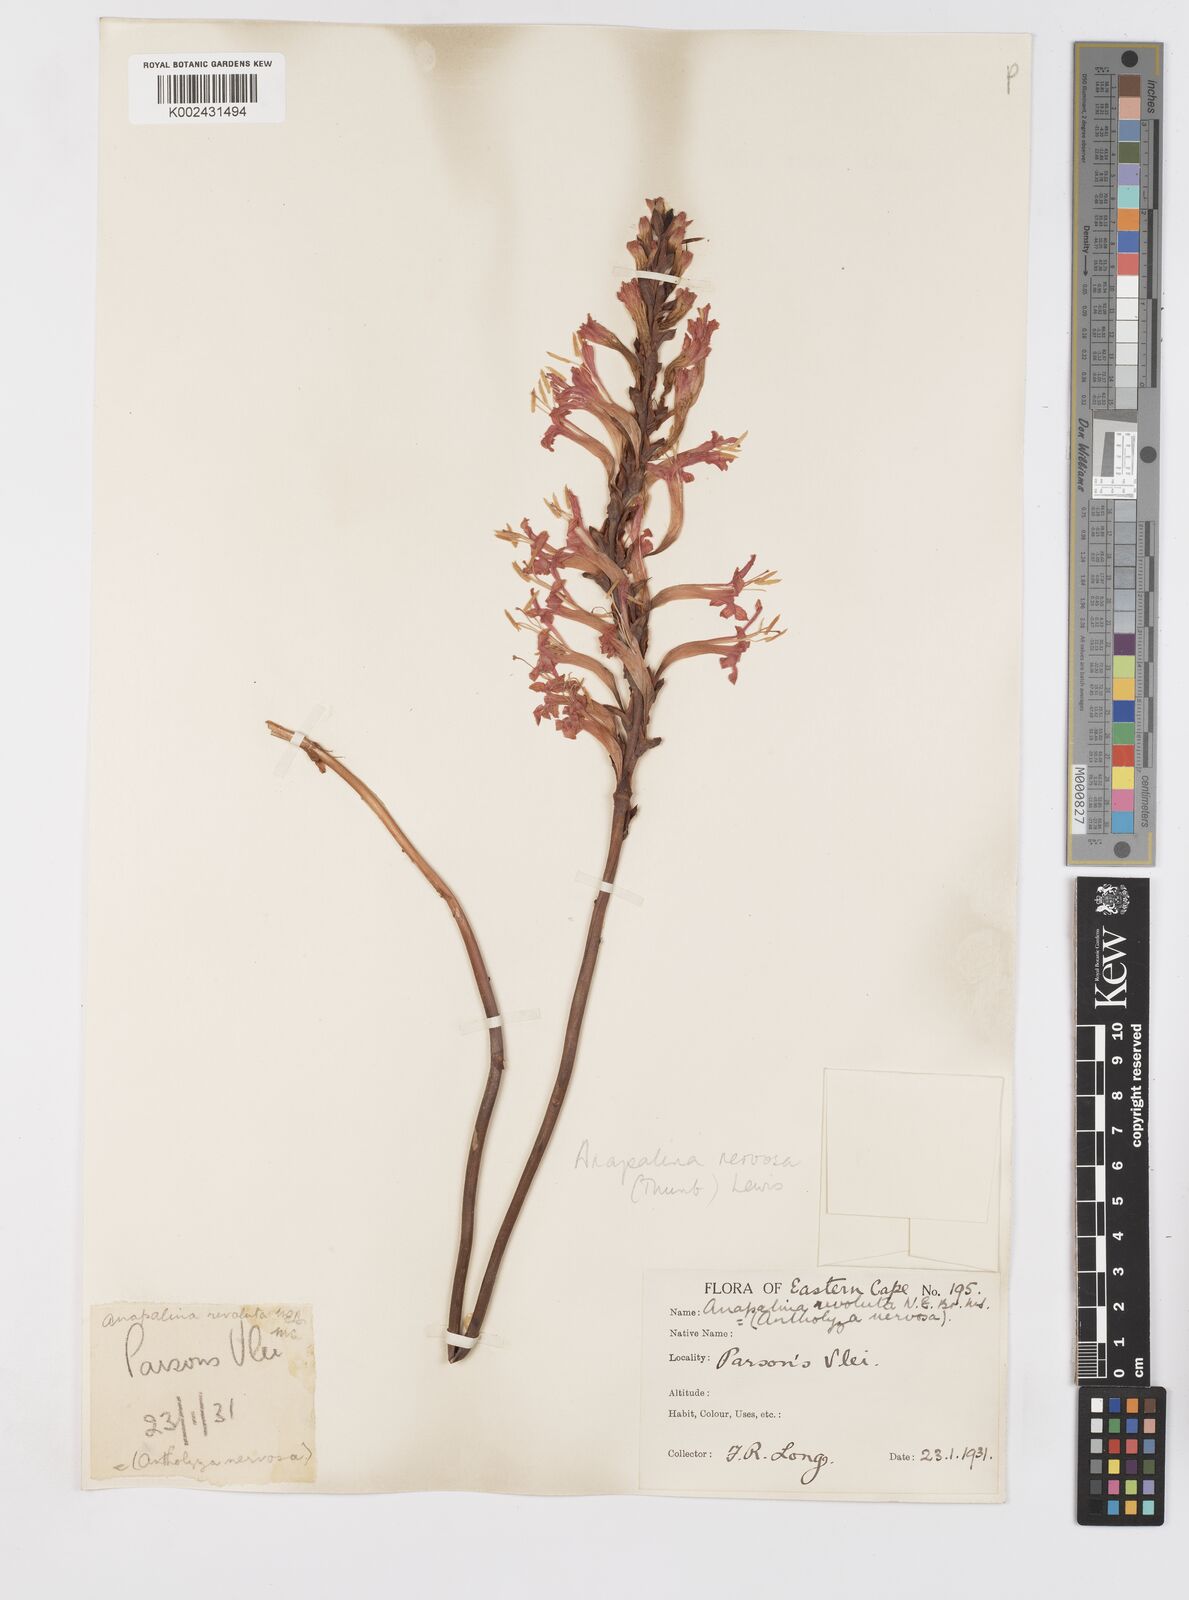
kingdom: Plantae
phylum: Tracheophyta
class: Liliopsida
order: Asparagales
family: Iridaceae
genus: Tritoniopsis
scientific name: Tritoniopsis nervosa
